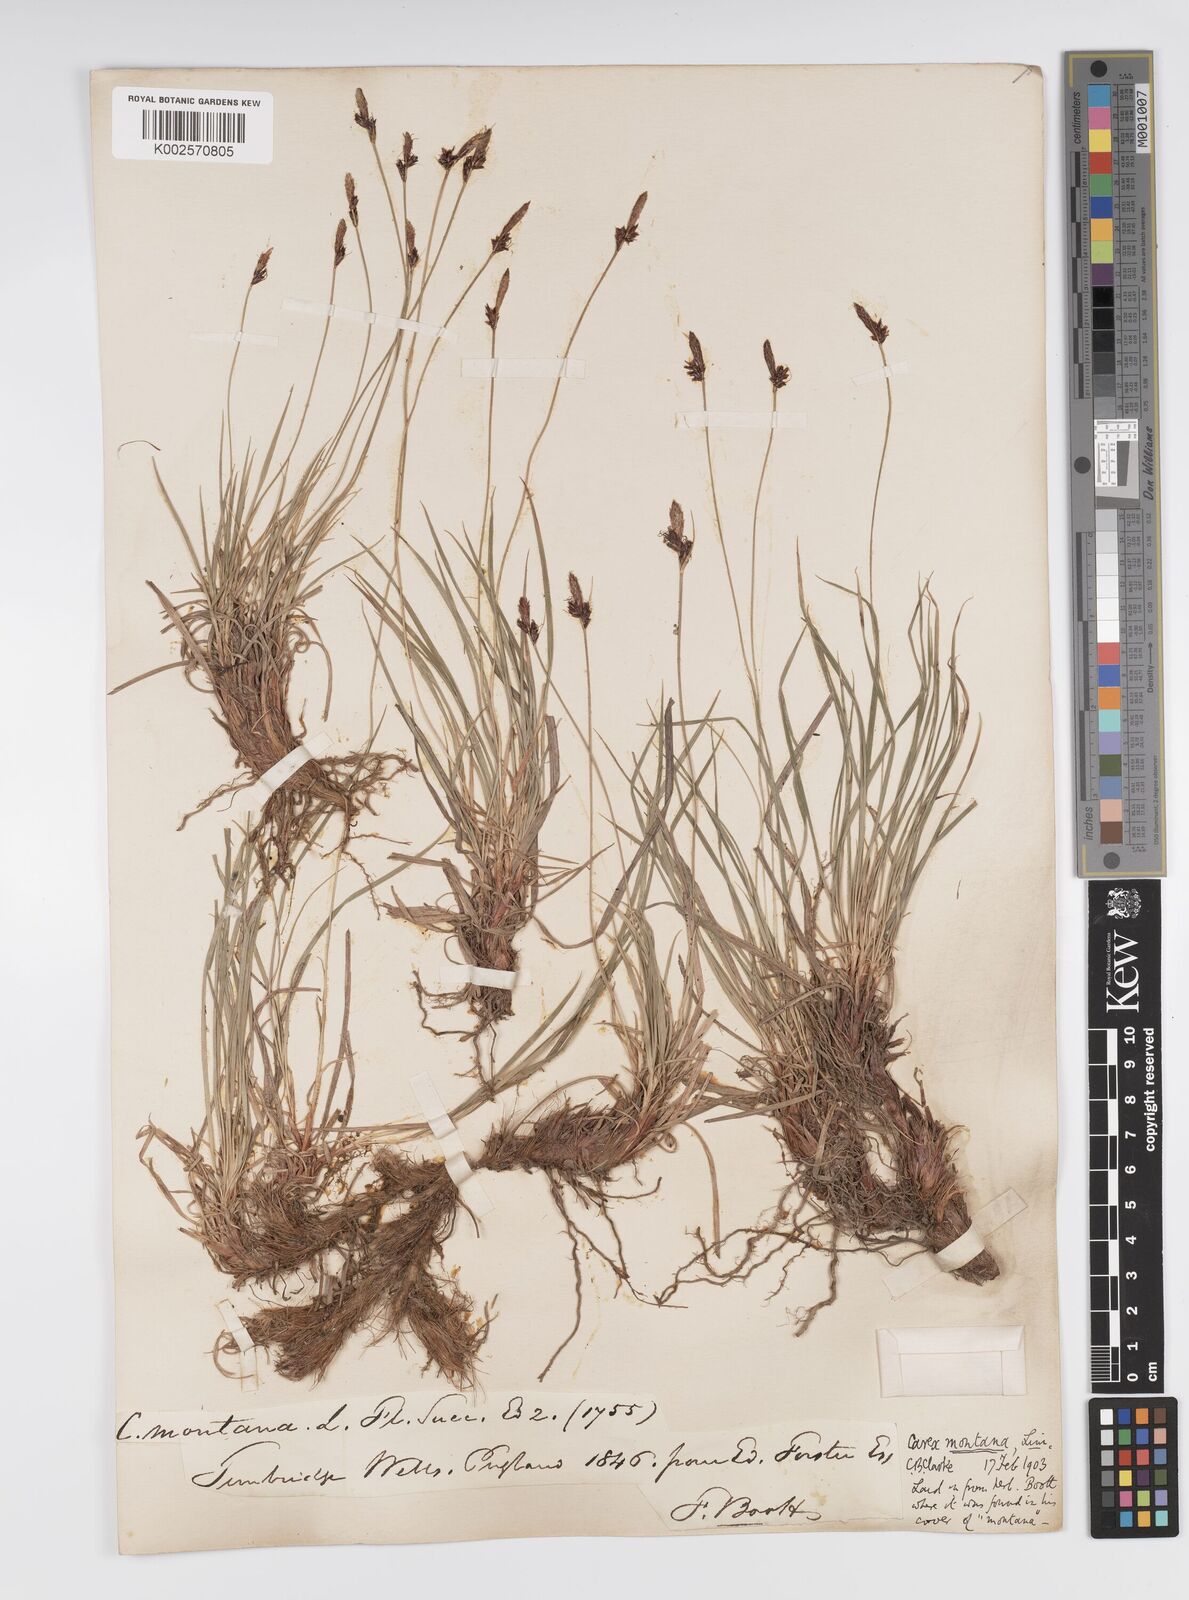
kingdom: Plantae
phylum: Tracheophyta
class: Liliopsida
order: Poales
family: Cyperaceae
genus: Carex
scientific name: Carex montana
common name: Soft-leaved sedge
